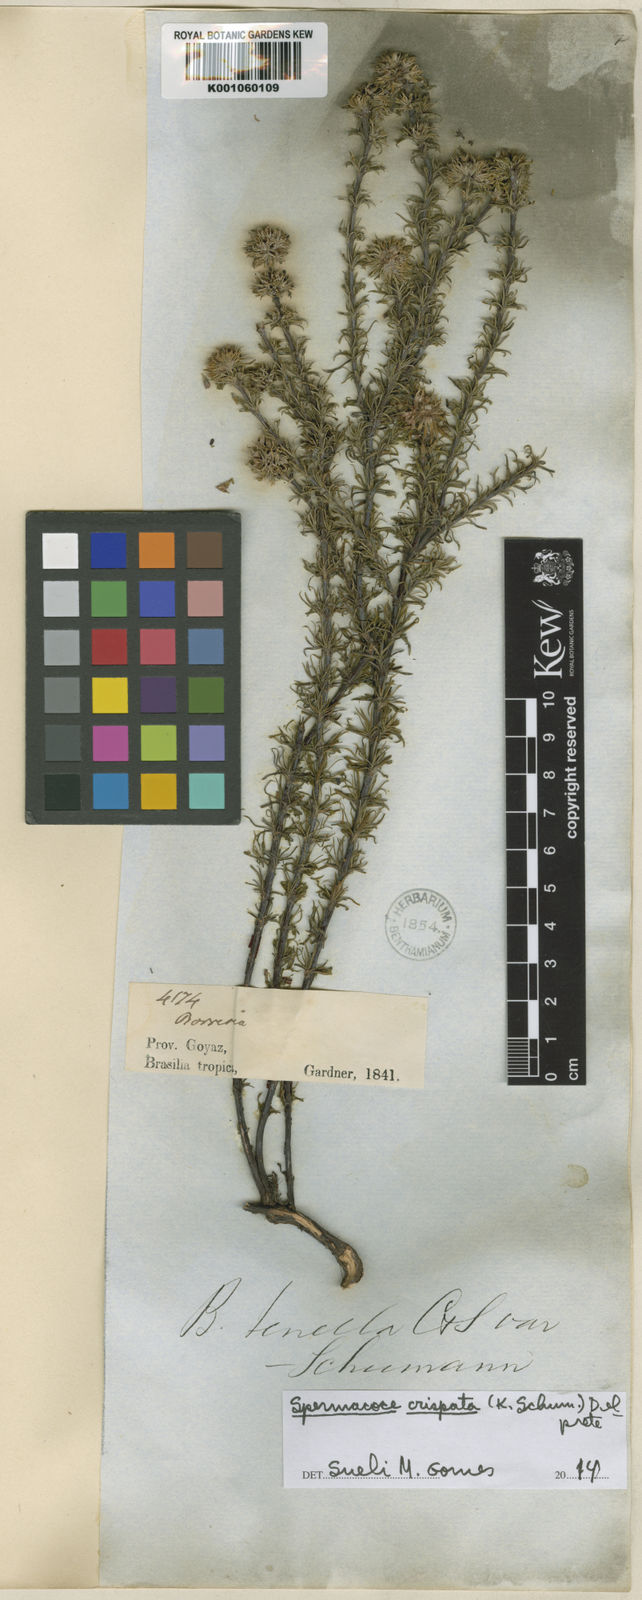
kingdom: Plantae
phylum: Tracheophyta
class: Magnoliopsida
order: Gentianales
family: Rubiaceae
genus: Spermacoce
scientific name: Spermacoce crispata
